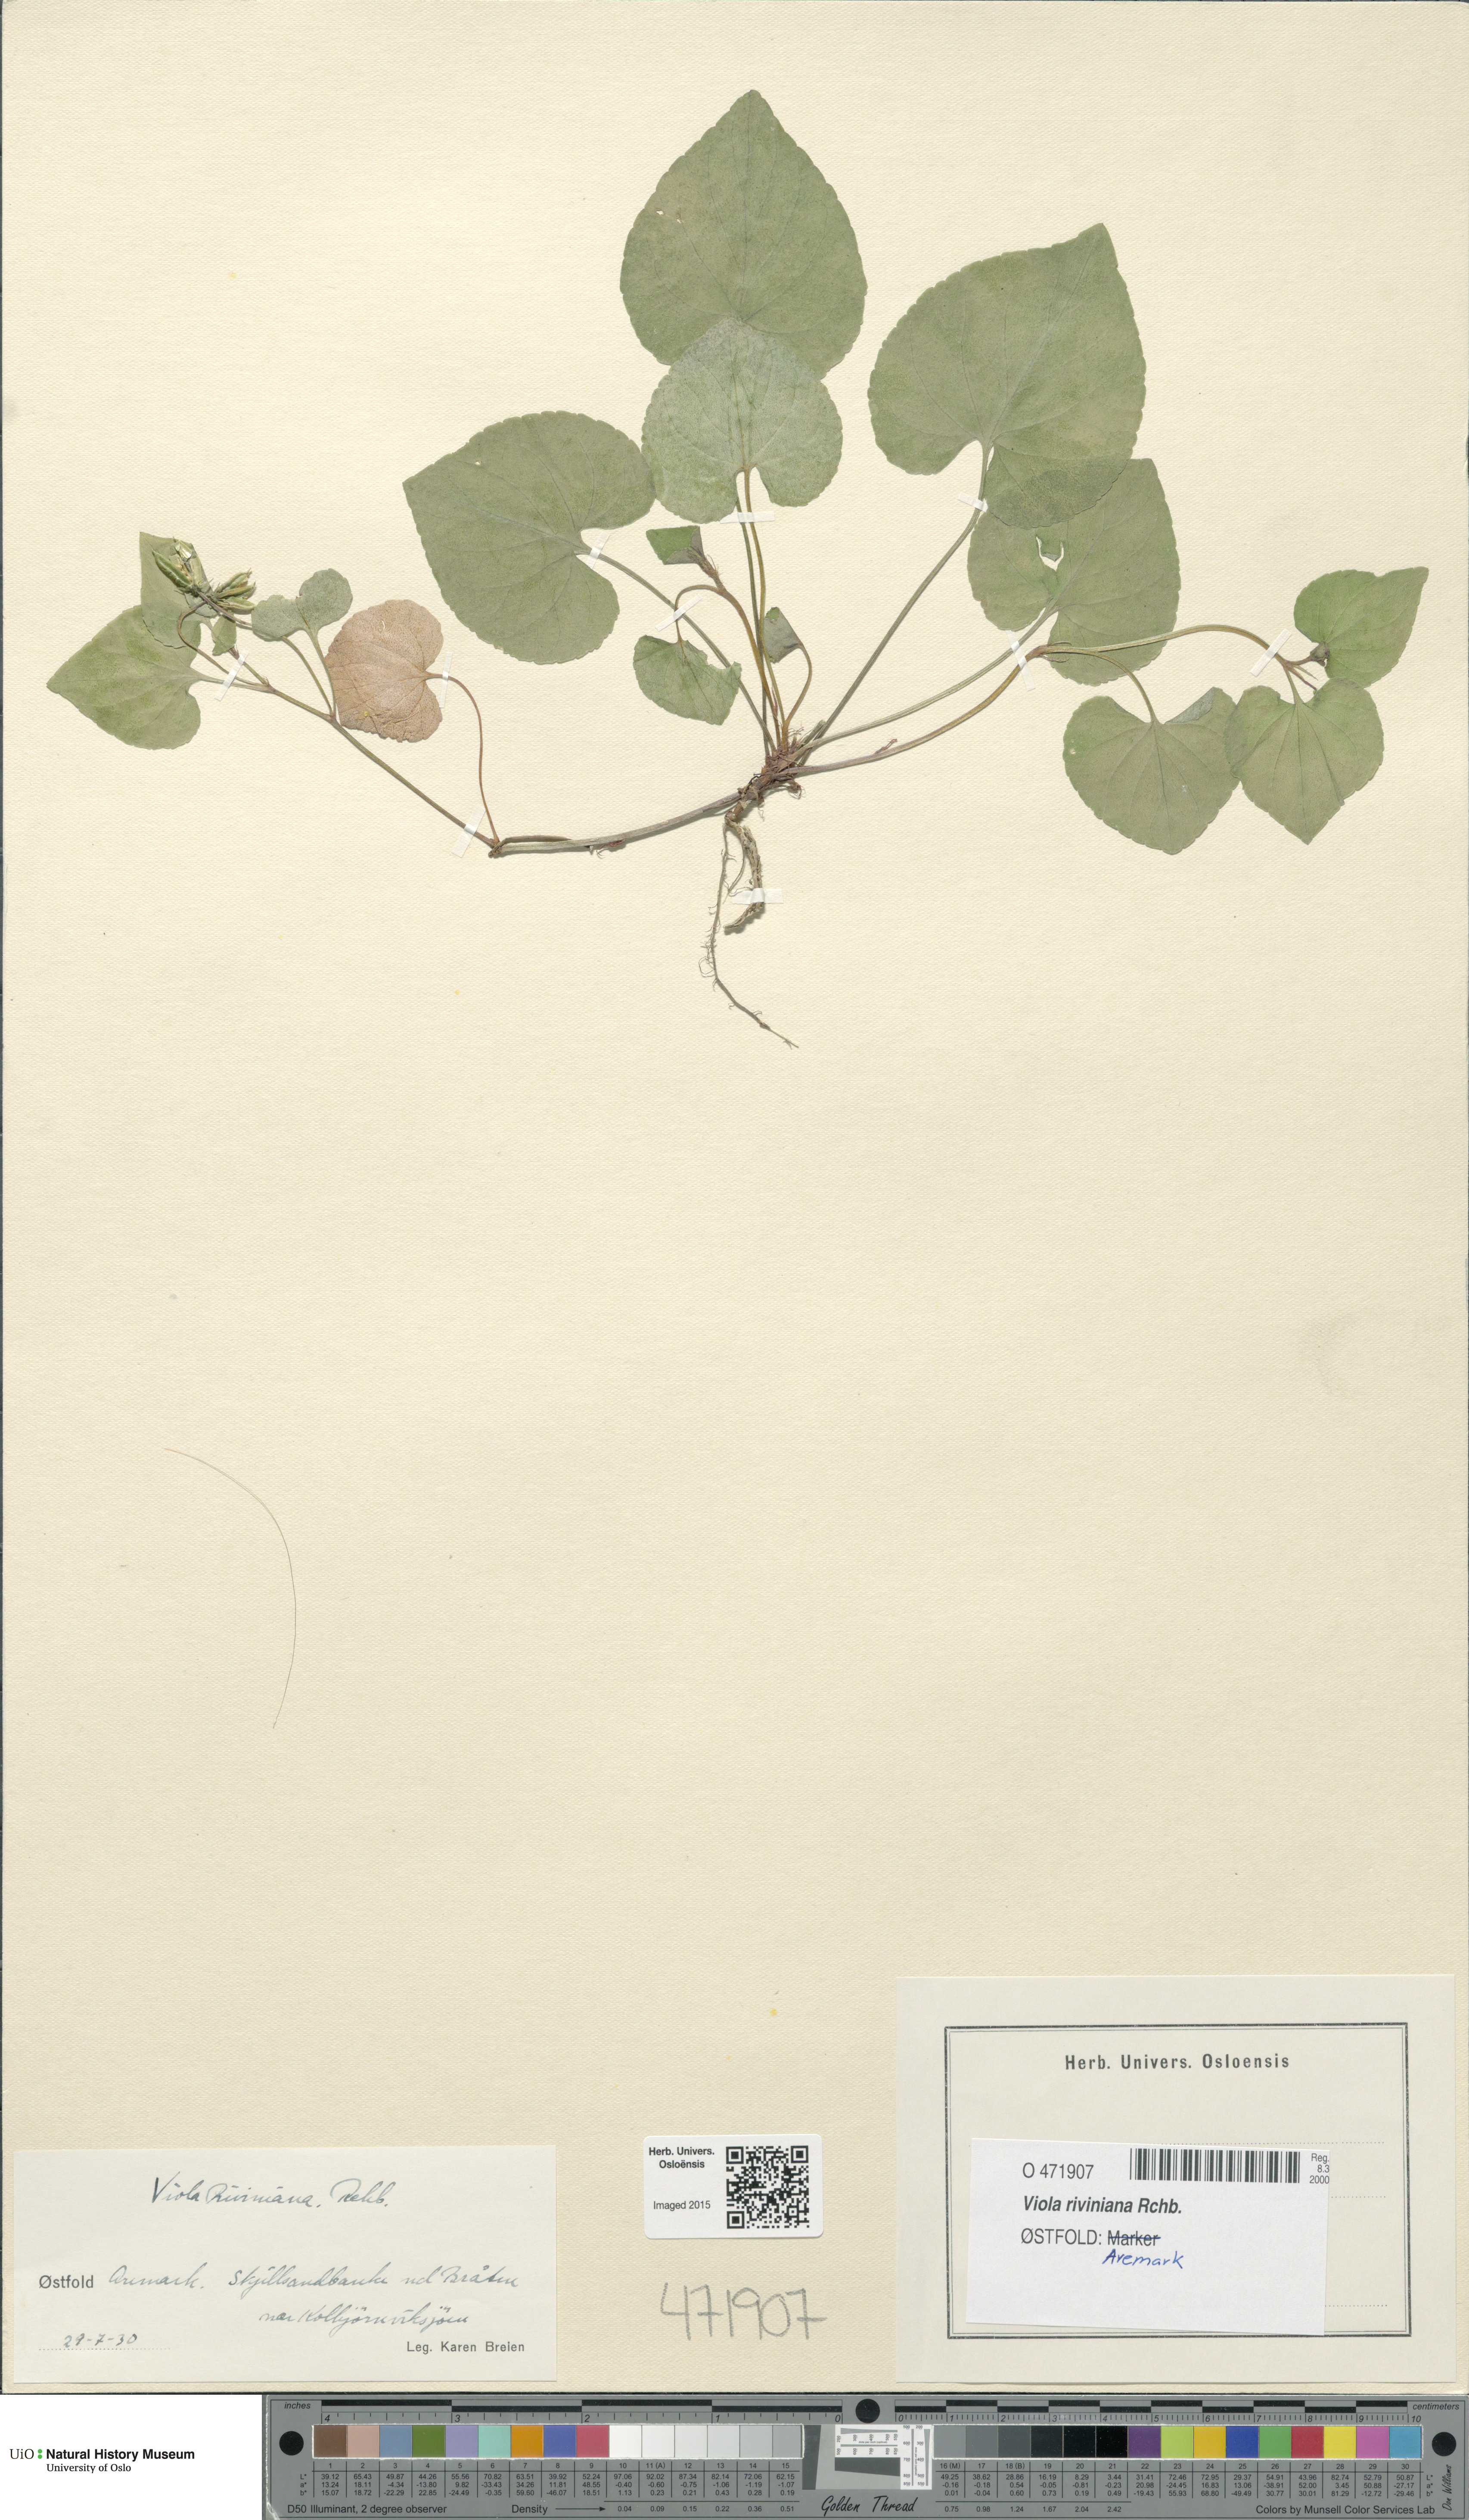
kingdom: Plantae
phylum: Tracheophyta
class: Magnoliopsida
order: Malpighiales
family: Violaceae
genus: Viola
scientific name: Viola riviniana
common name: Common dog-violet
